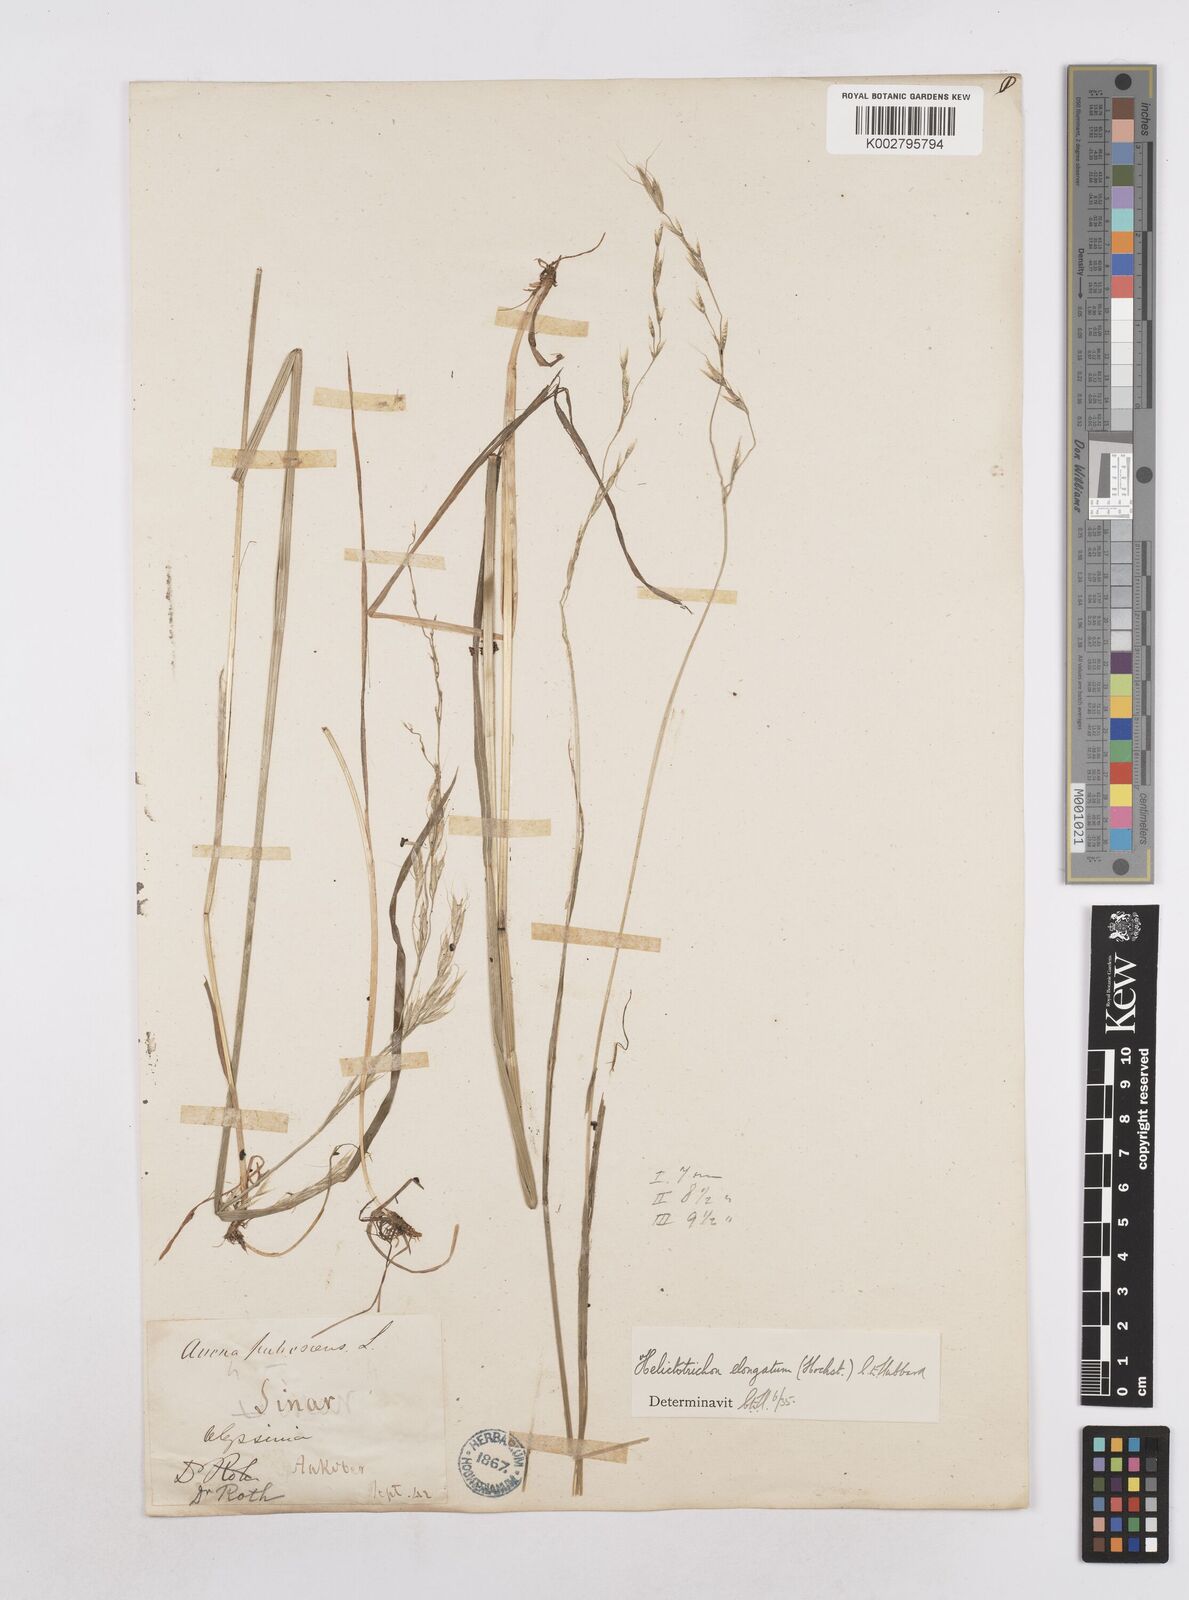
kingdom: Plantae
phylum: Tracheophyta
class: Liliopsida
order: Poales
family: Poaceae
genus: Trisetopsis
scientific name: Trisetopsis elongata
